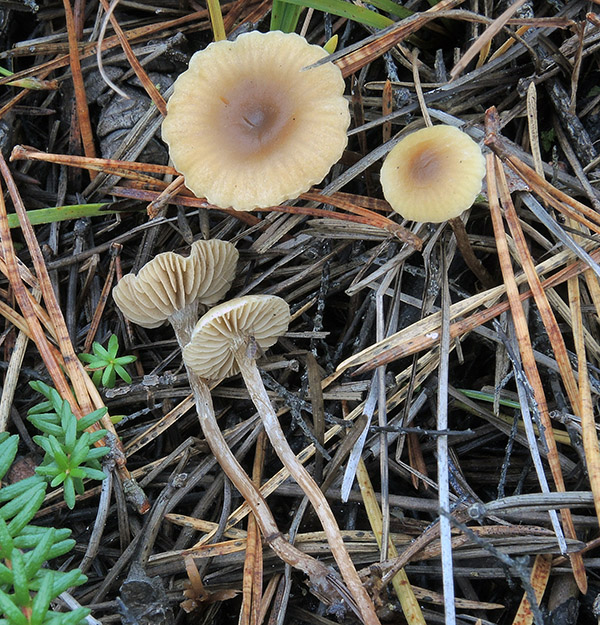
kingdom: Fungi
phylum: Basidiomycota
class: Agaricomycetes
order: Agaricales
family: Strophariaceae
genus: Hypholoma
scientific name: Hypholoma laeticolor
